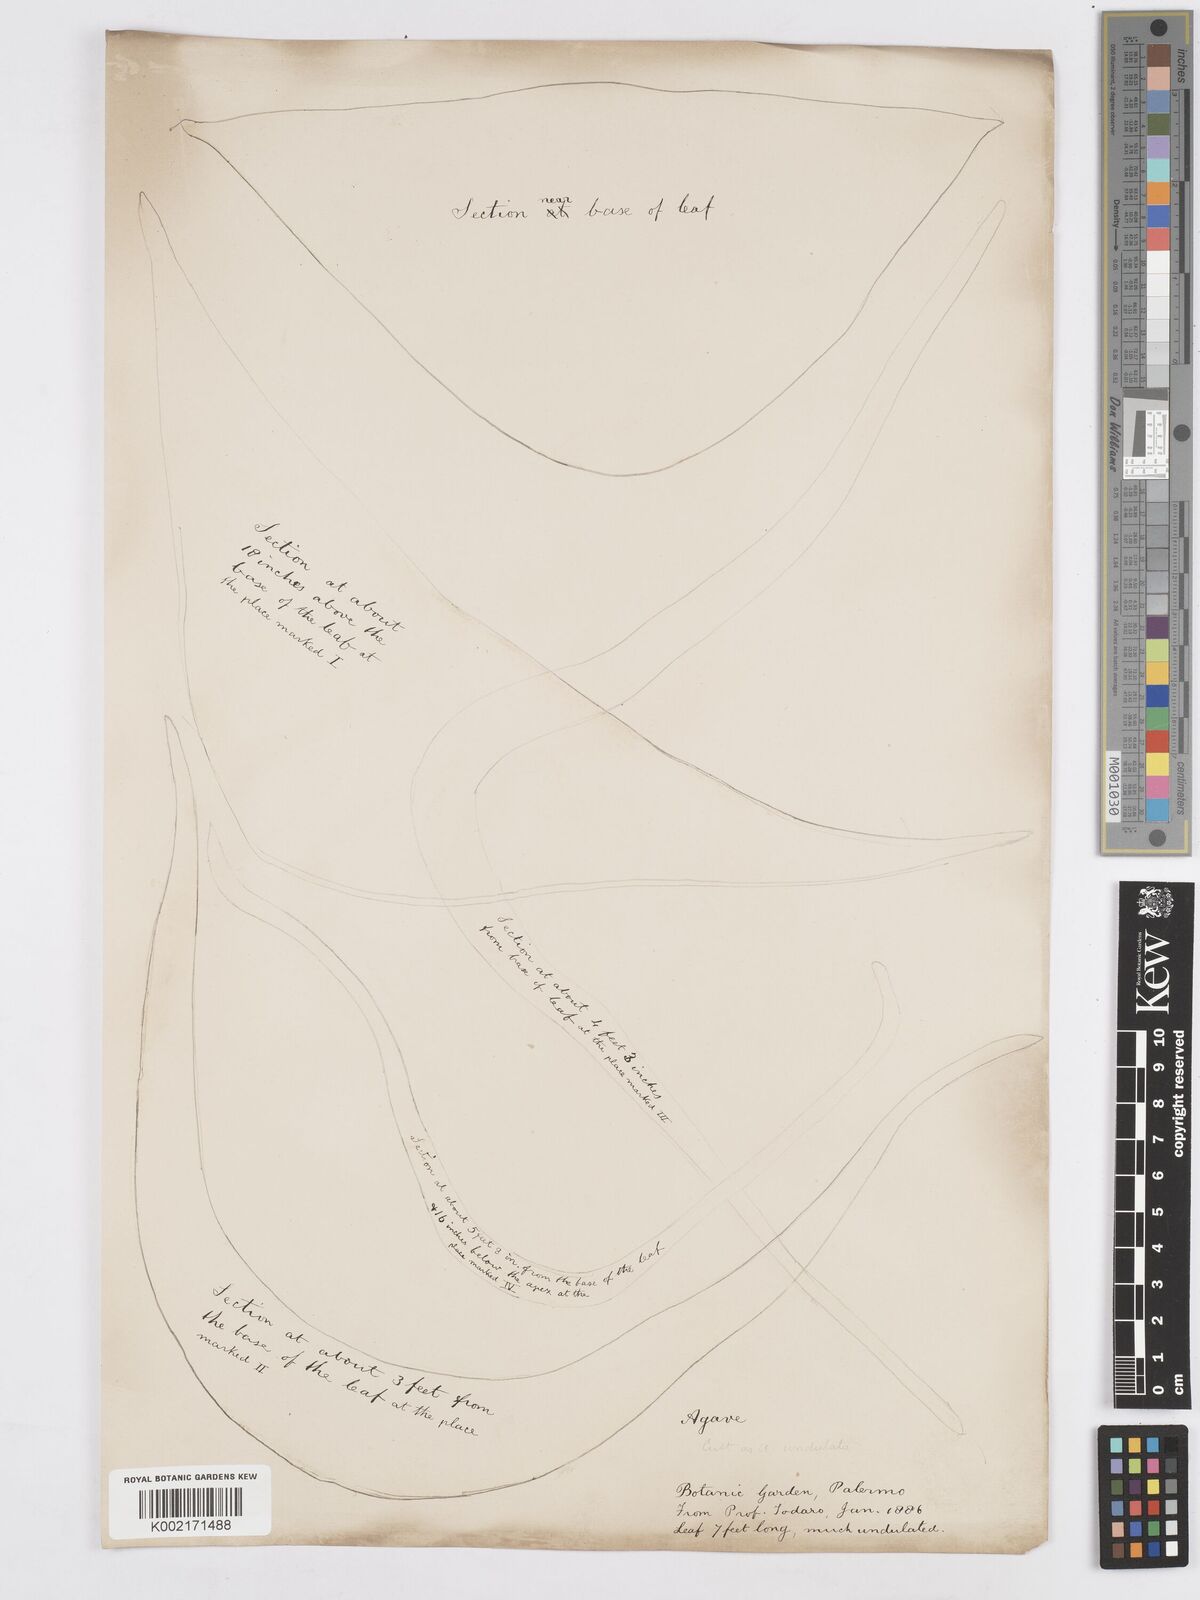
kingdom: Plantae
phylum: Tracheophyta
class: Liliopsida
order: Asparagales
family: Asparagaceae
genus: Agave
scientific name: Agave marmorata
